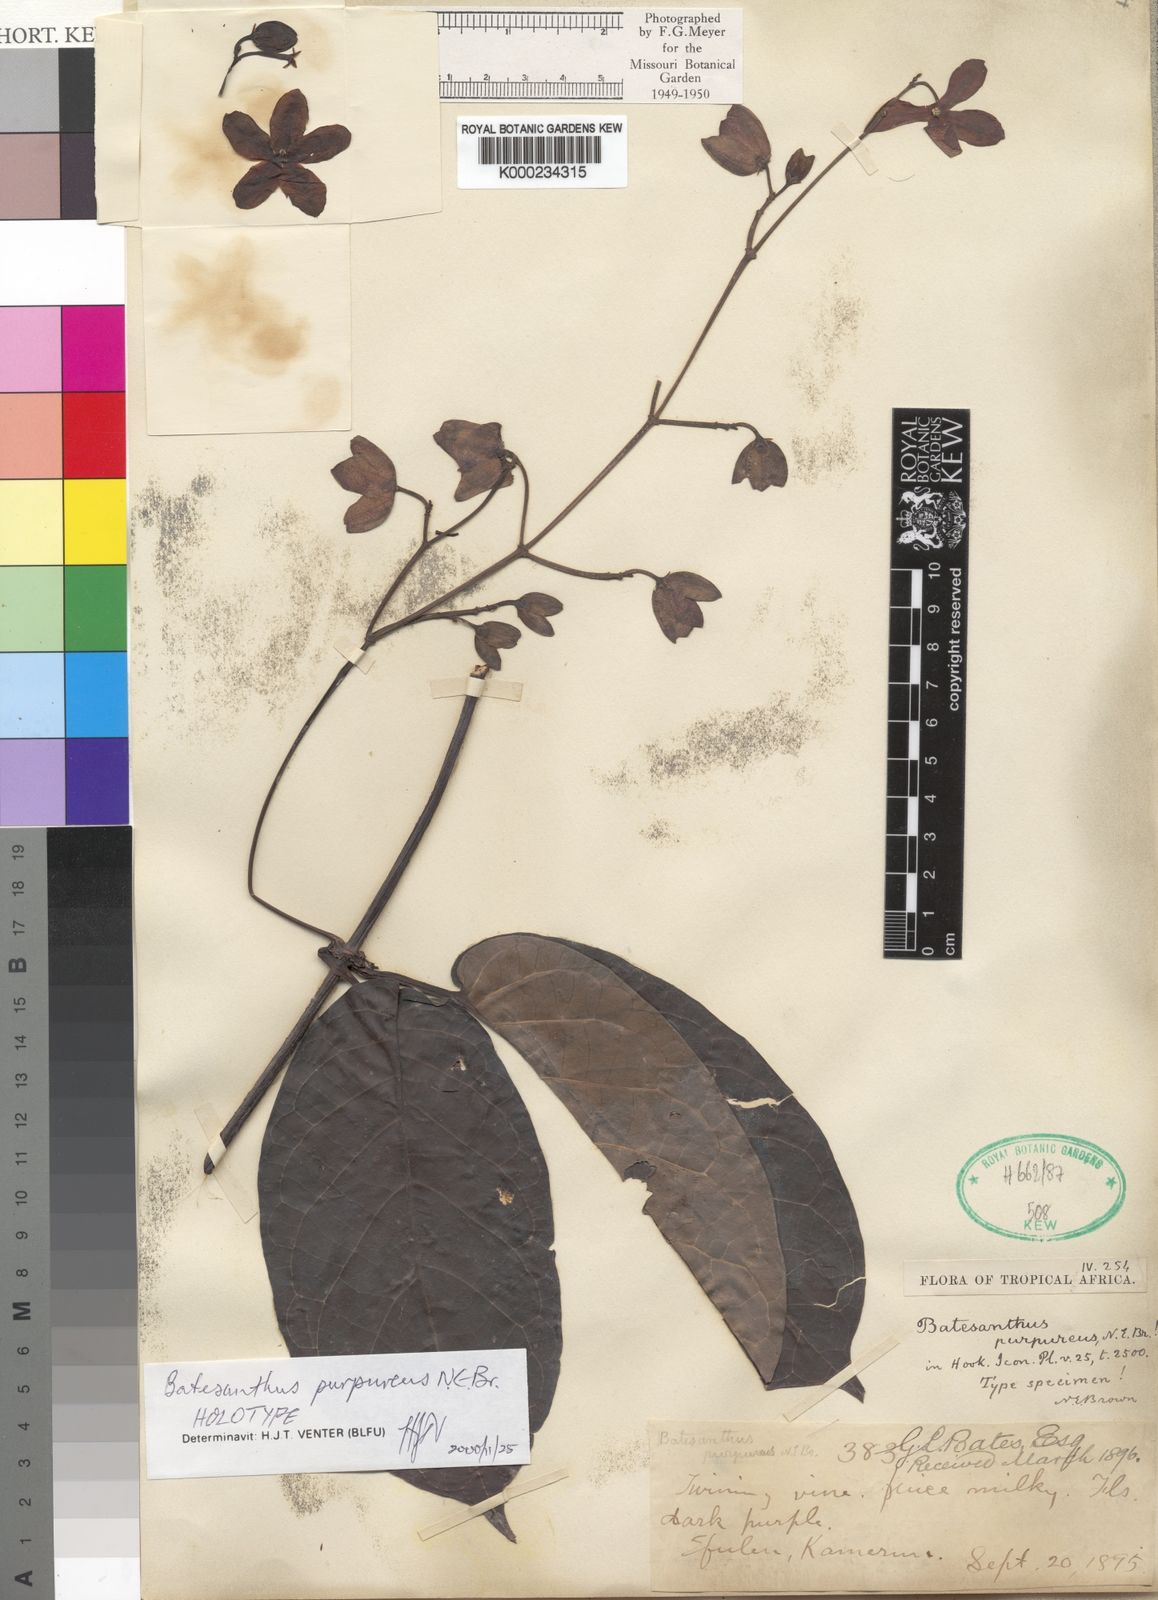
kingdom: Plantae
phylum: Tracheophyta
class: Magnoliopsida
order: Gentianales
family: Apocynaceae
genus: Batesanthus
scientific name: Batesanthus purpureus
